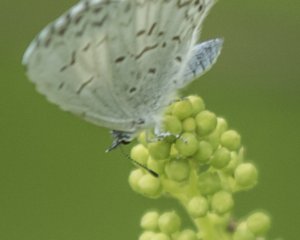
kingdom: Animalia
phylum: Arthropoda
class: Insecta
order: Lepidoptera
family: Lycaenidae
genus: Cyaniris
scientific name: Cyaniris neglecta
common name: Summer Azure
